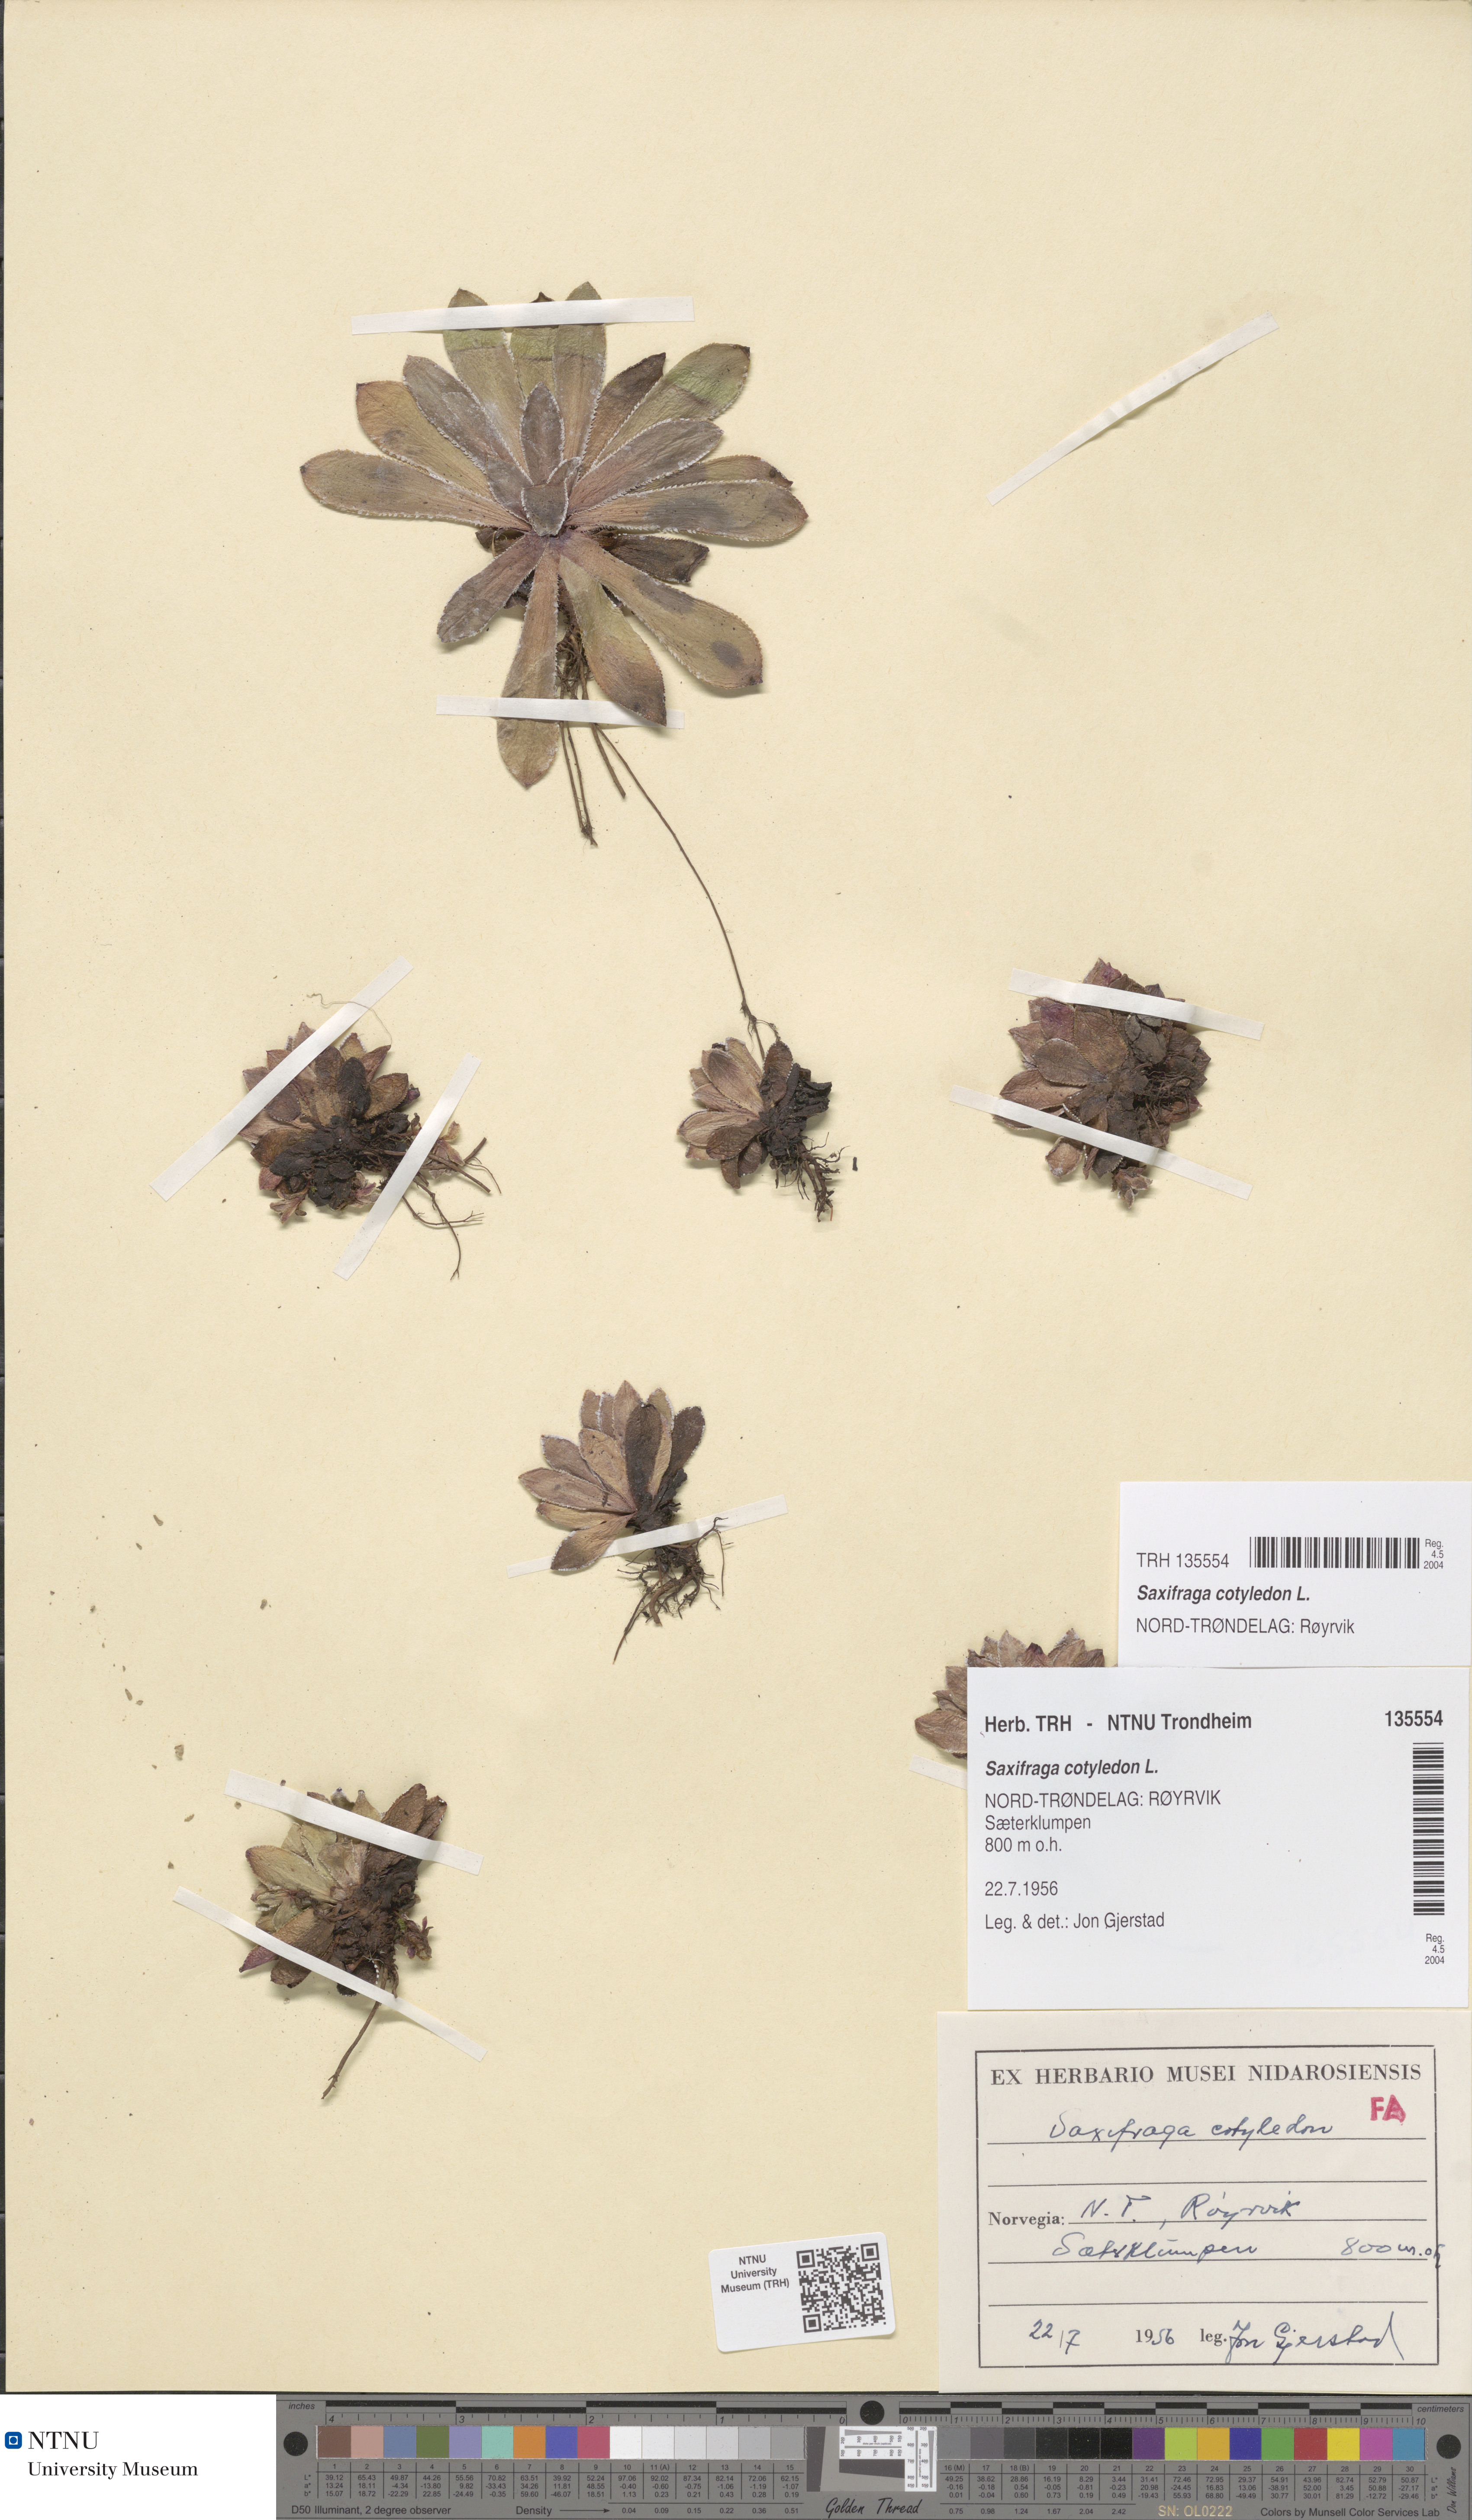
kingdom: Plantae
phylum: Tracheophyta
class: Magnoliopsida
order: Saxifragales
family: Saxifragaceae
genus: Saxifraga
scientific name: Saxifraga cotyledon
